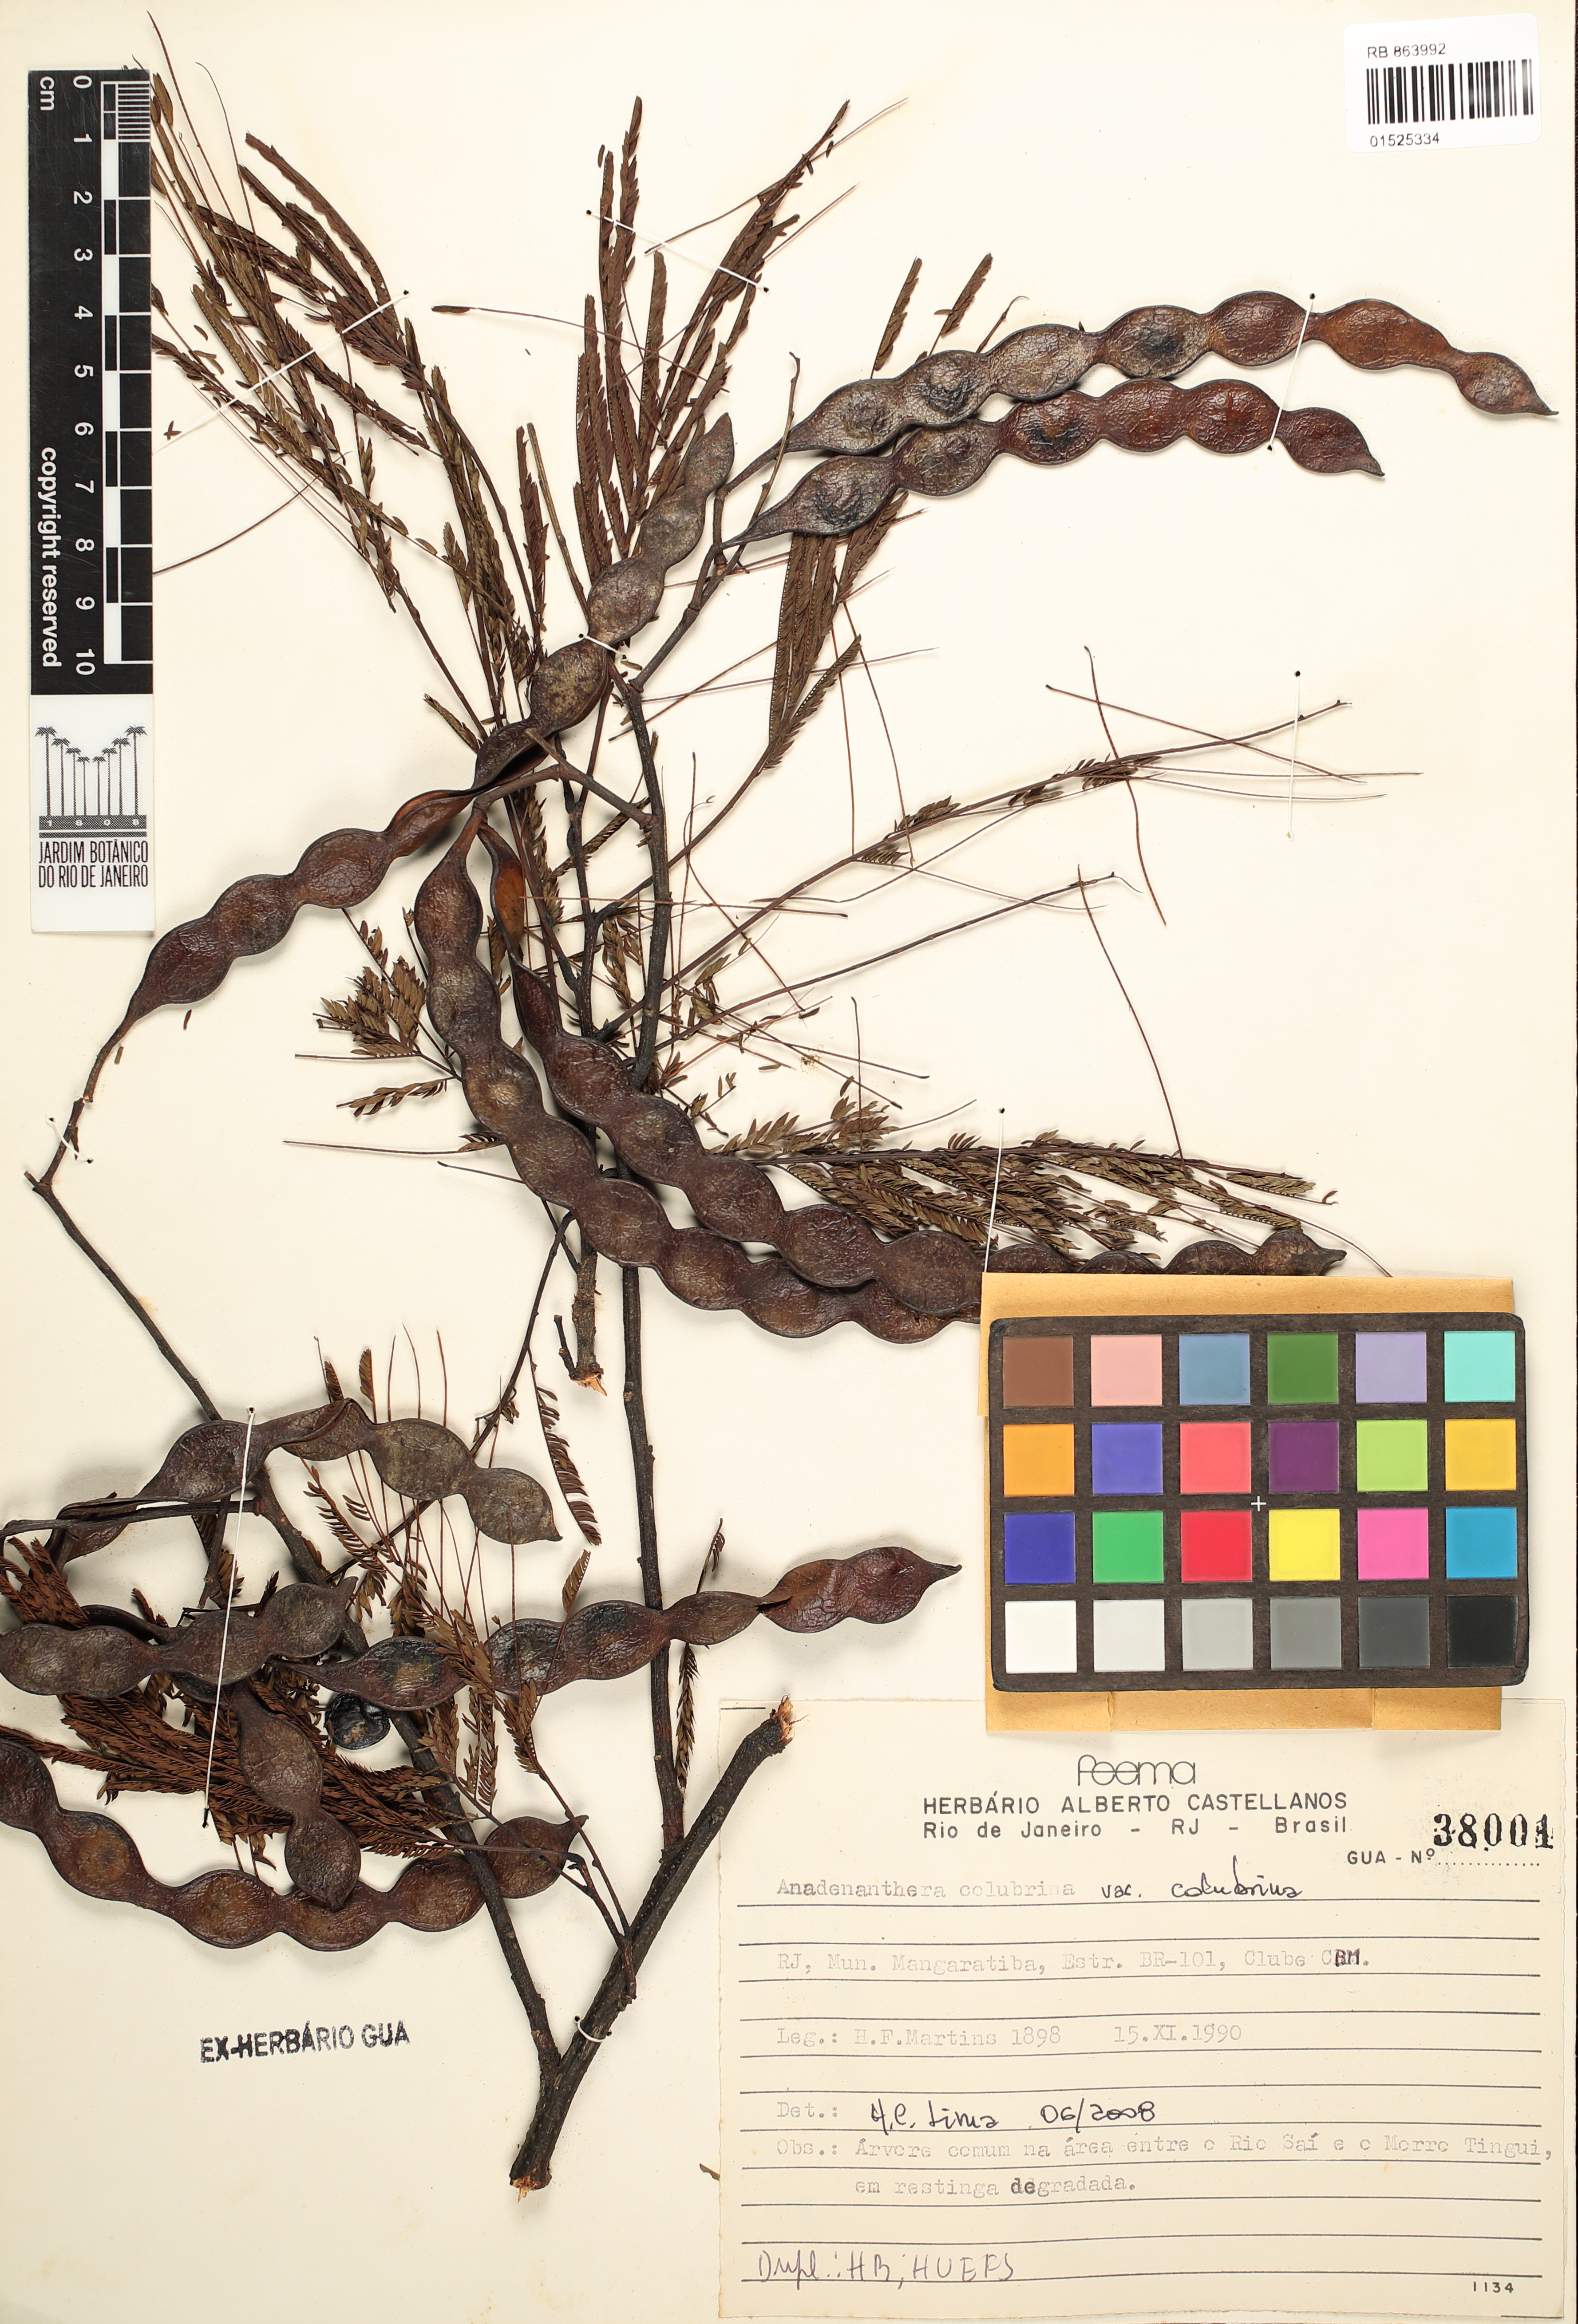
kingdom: Plantae
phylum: Tracheophyta
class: Magnoliopsida
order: Fabales
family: Fabaceae
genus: Anadenanthera
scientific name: Anadenanthera colubrina
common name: Curupay
